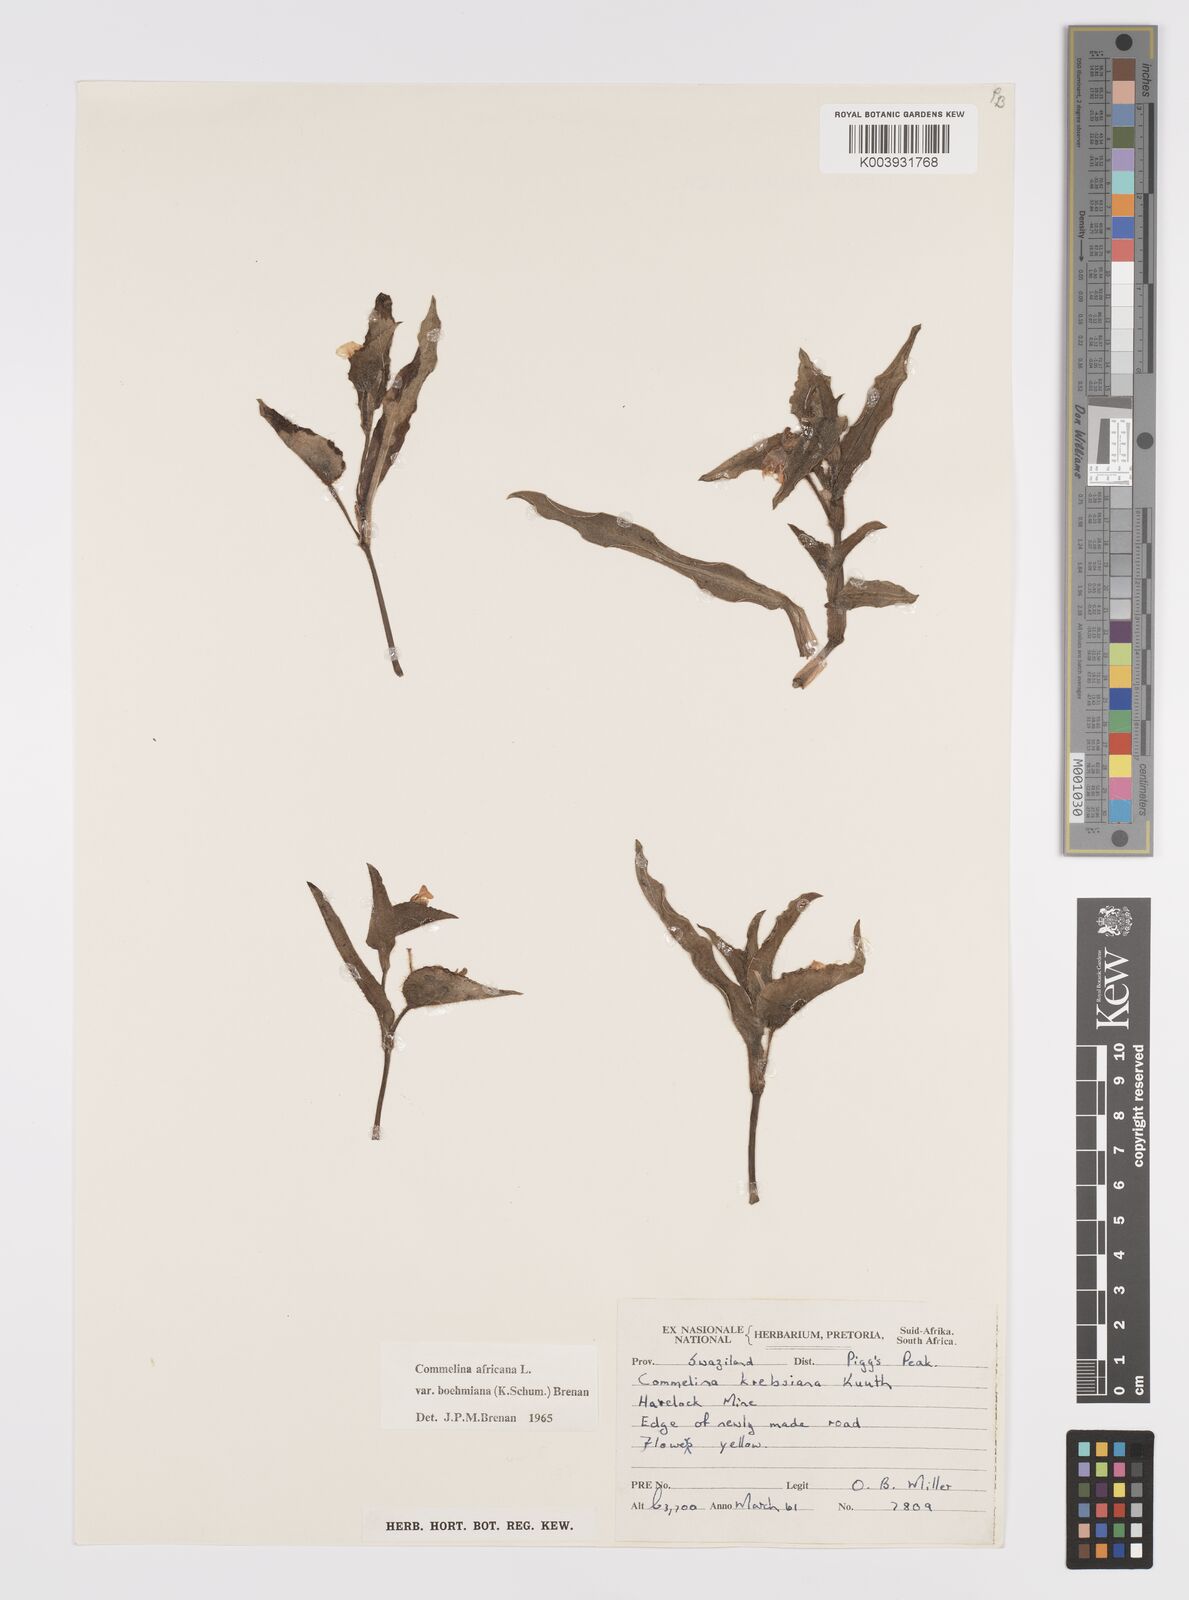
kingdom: Plantae
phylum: Tracheophyta
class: Liliopsida
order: Commelinales
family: Commelinaceae
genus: Commelina
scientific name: Commelina africana
